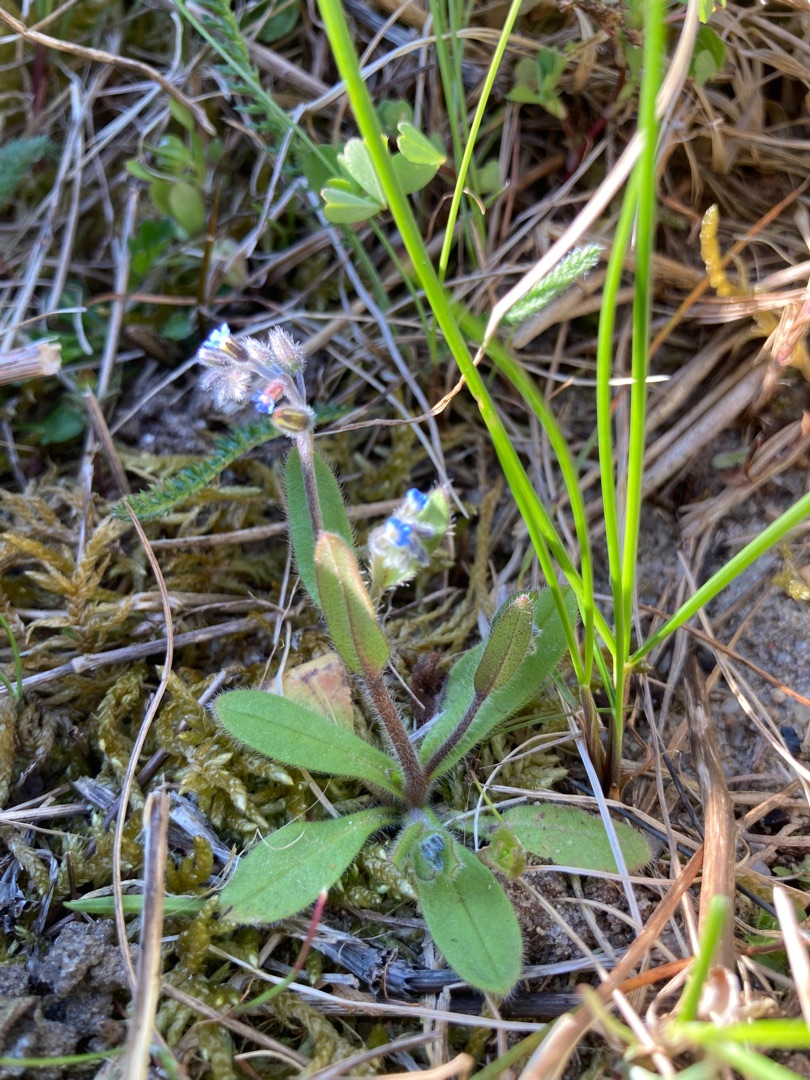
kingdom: Plantae
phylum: Tracheophyta
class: Magnoliopsida
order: Boraginales
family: Boraginaceae
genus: Myosotis
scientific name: Myosotis ramosissima
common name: Bakke-forglemmigej
